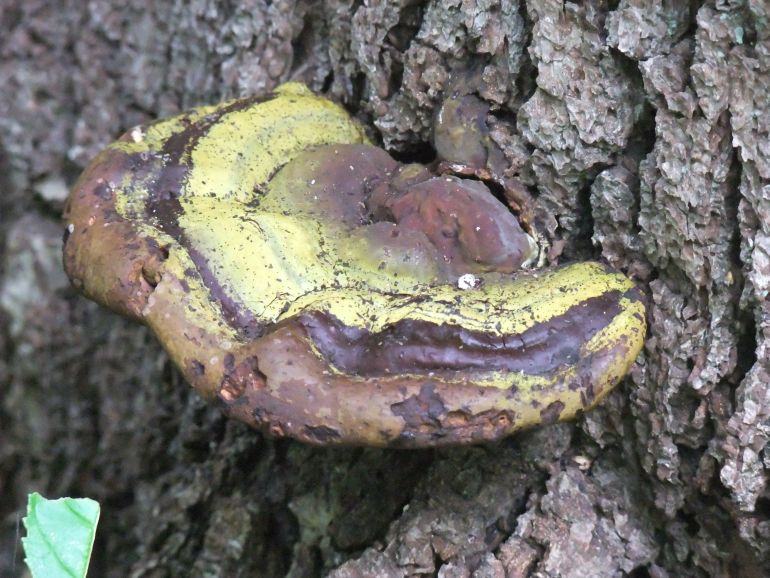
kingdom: Fungi
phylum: Basidiomycota
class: Agaricomycetes
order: Polyporales
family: Polyporaceae
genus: Ganoderma
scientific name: Ganoderma resinaceum
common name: gyldenbrun lakporesvamp
